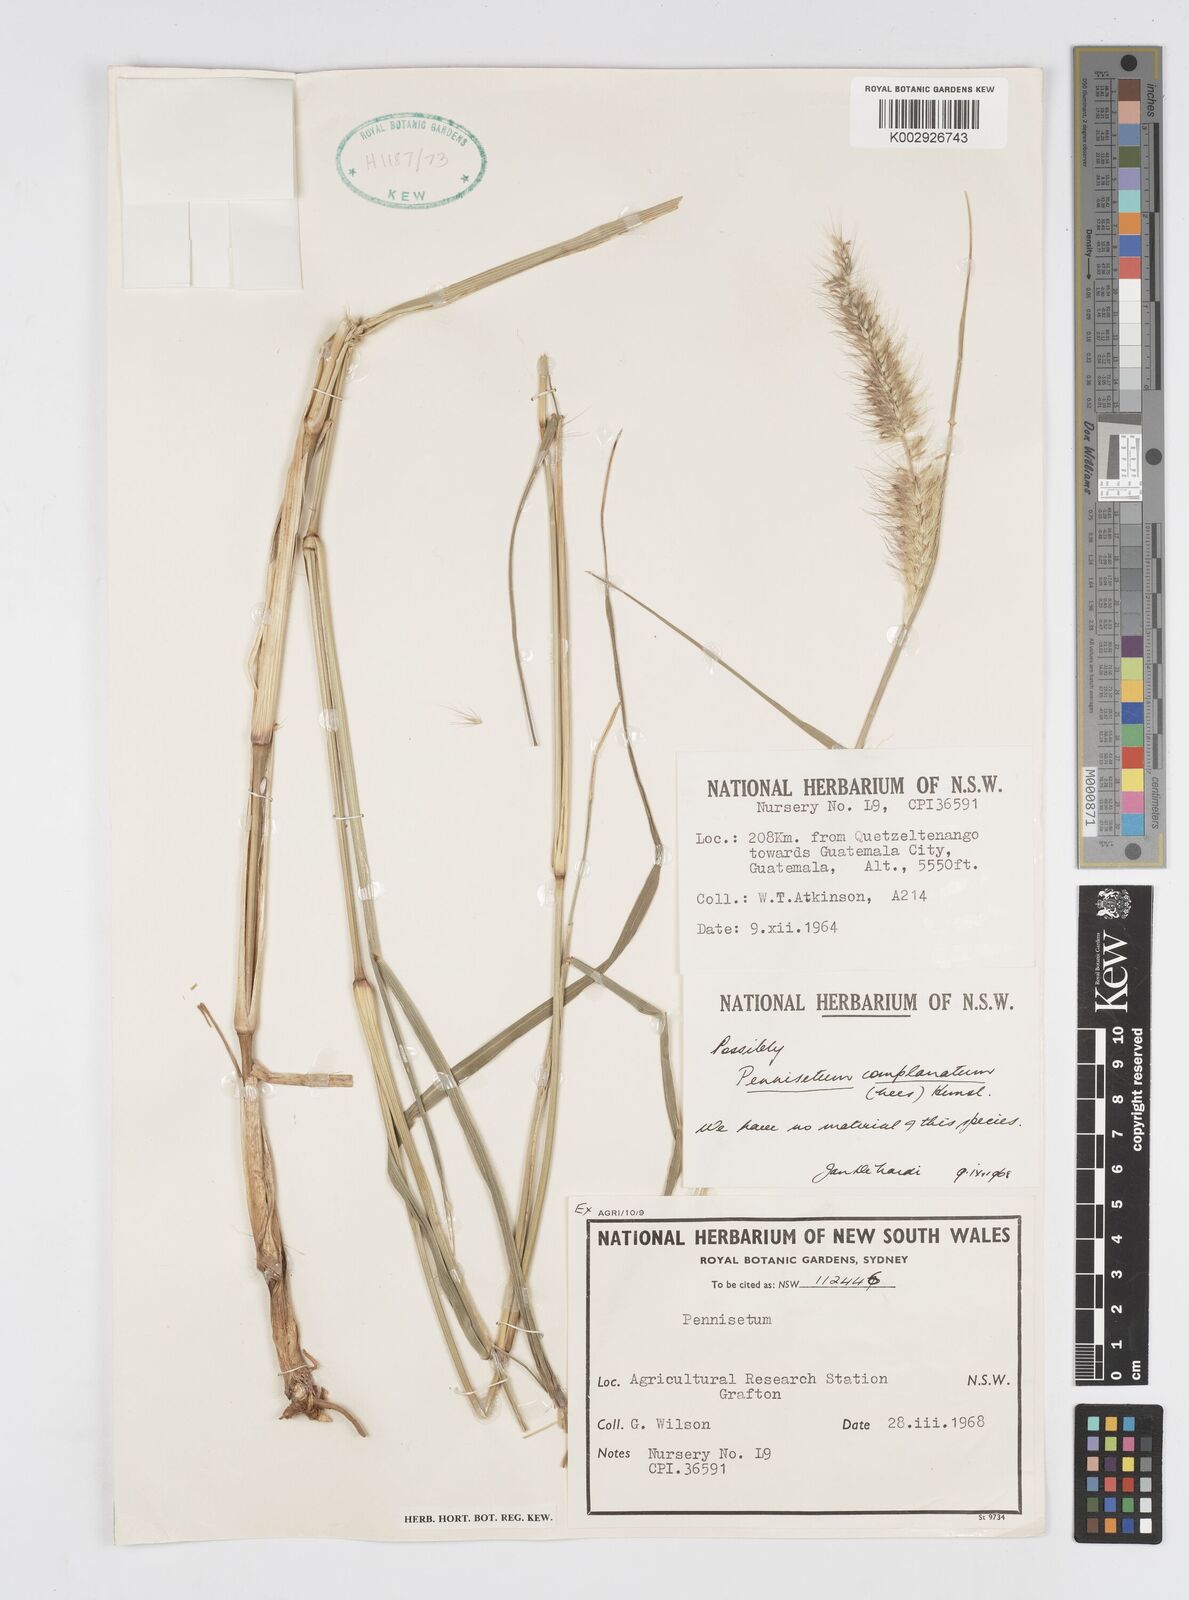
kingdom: Plantae
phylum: Tracheophyta
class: Liliopsida
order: Poales
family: Poaceae
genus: Cenchrus
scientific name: Cenchrus complanatus
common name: Nicaraguan fountaingrass
